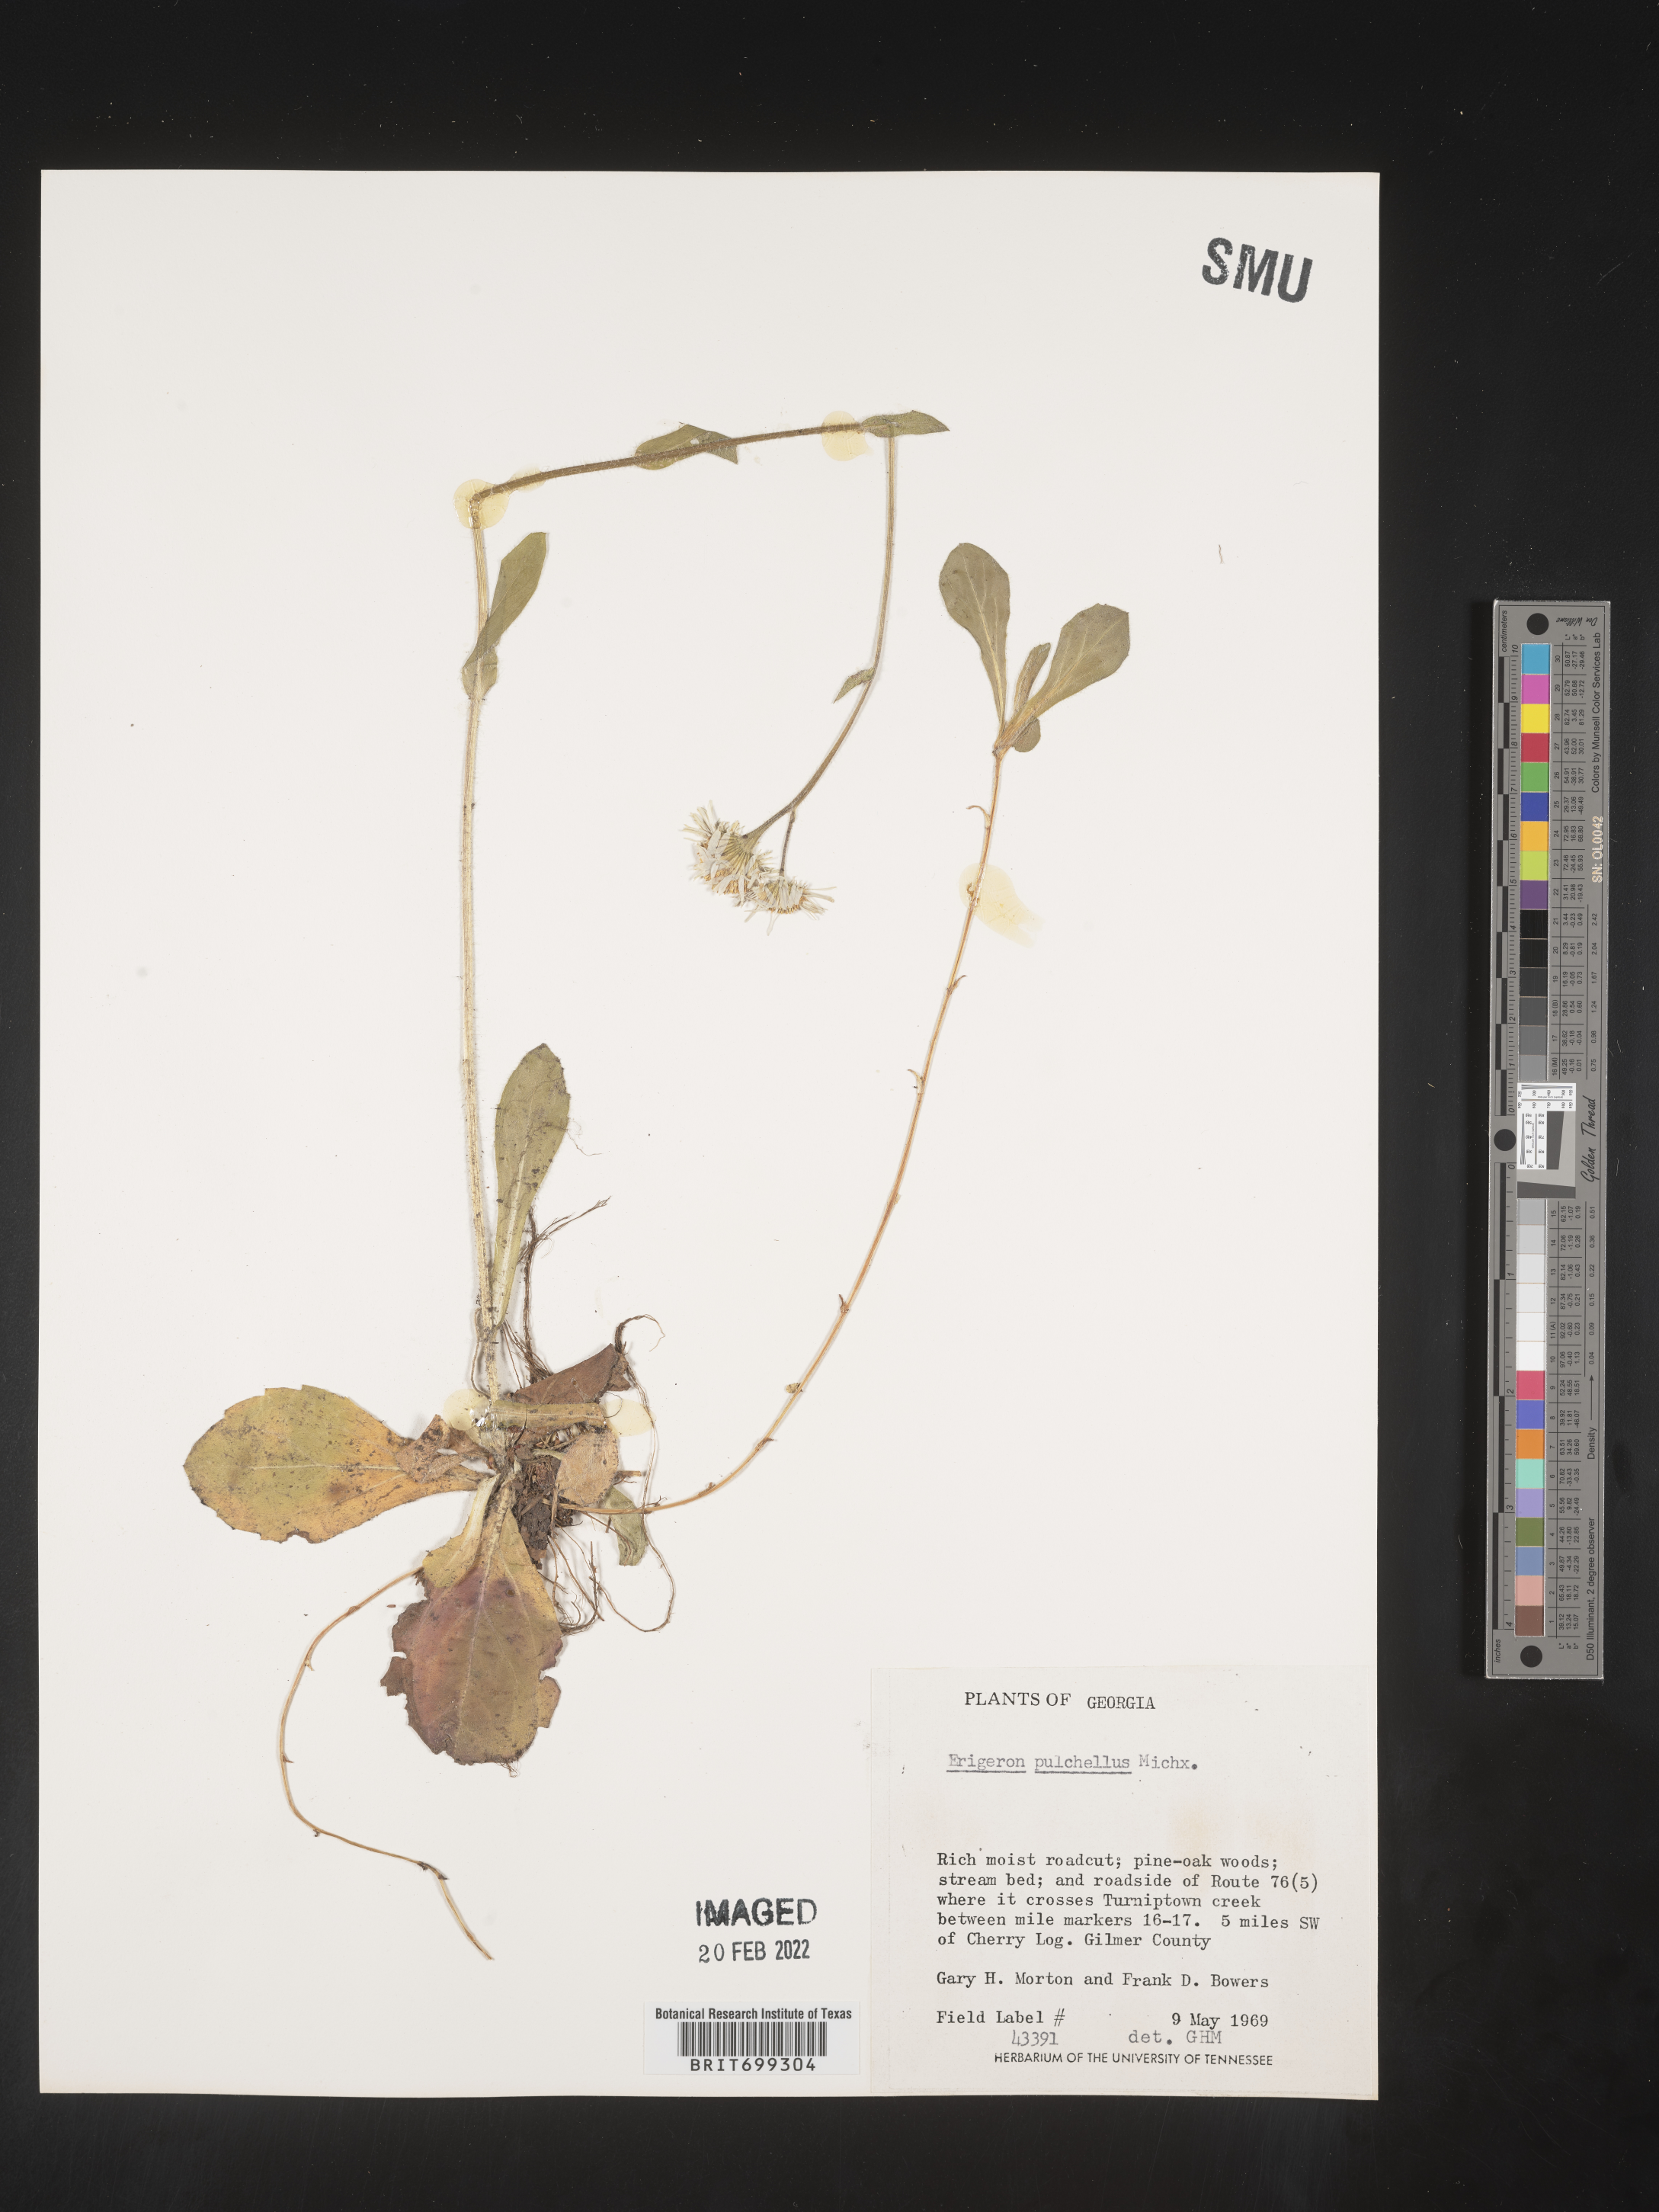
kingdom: Plantae
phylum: Tracheophyta
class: Magnoliopsida
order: Asterales
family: Asteraceae
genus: Erigeron
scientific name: Erigeron pulchellus
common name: Hairy fleabane
